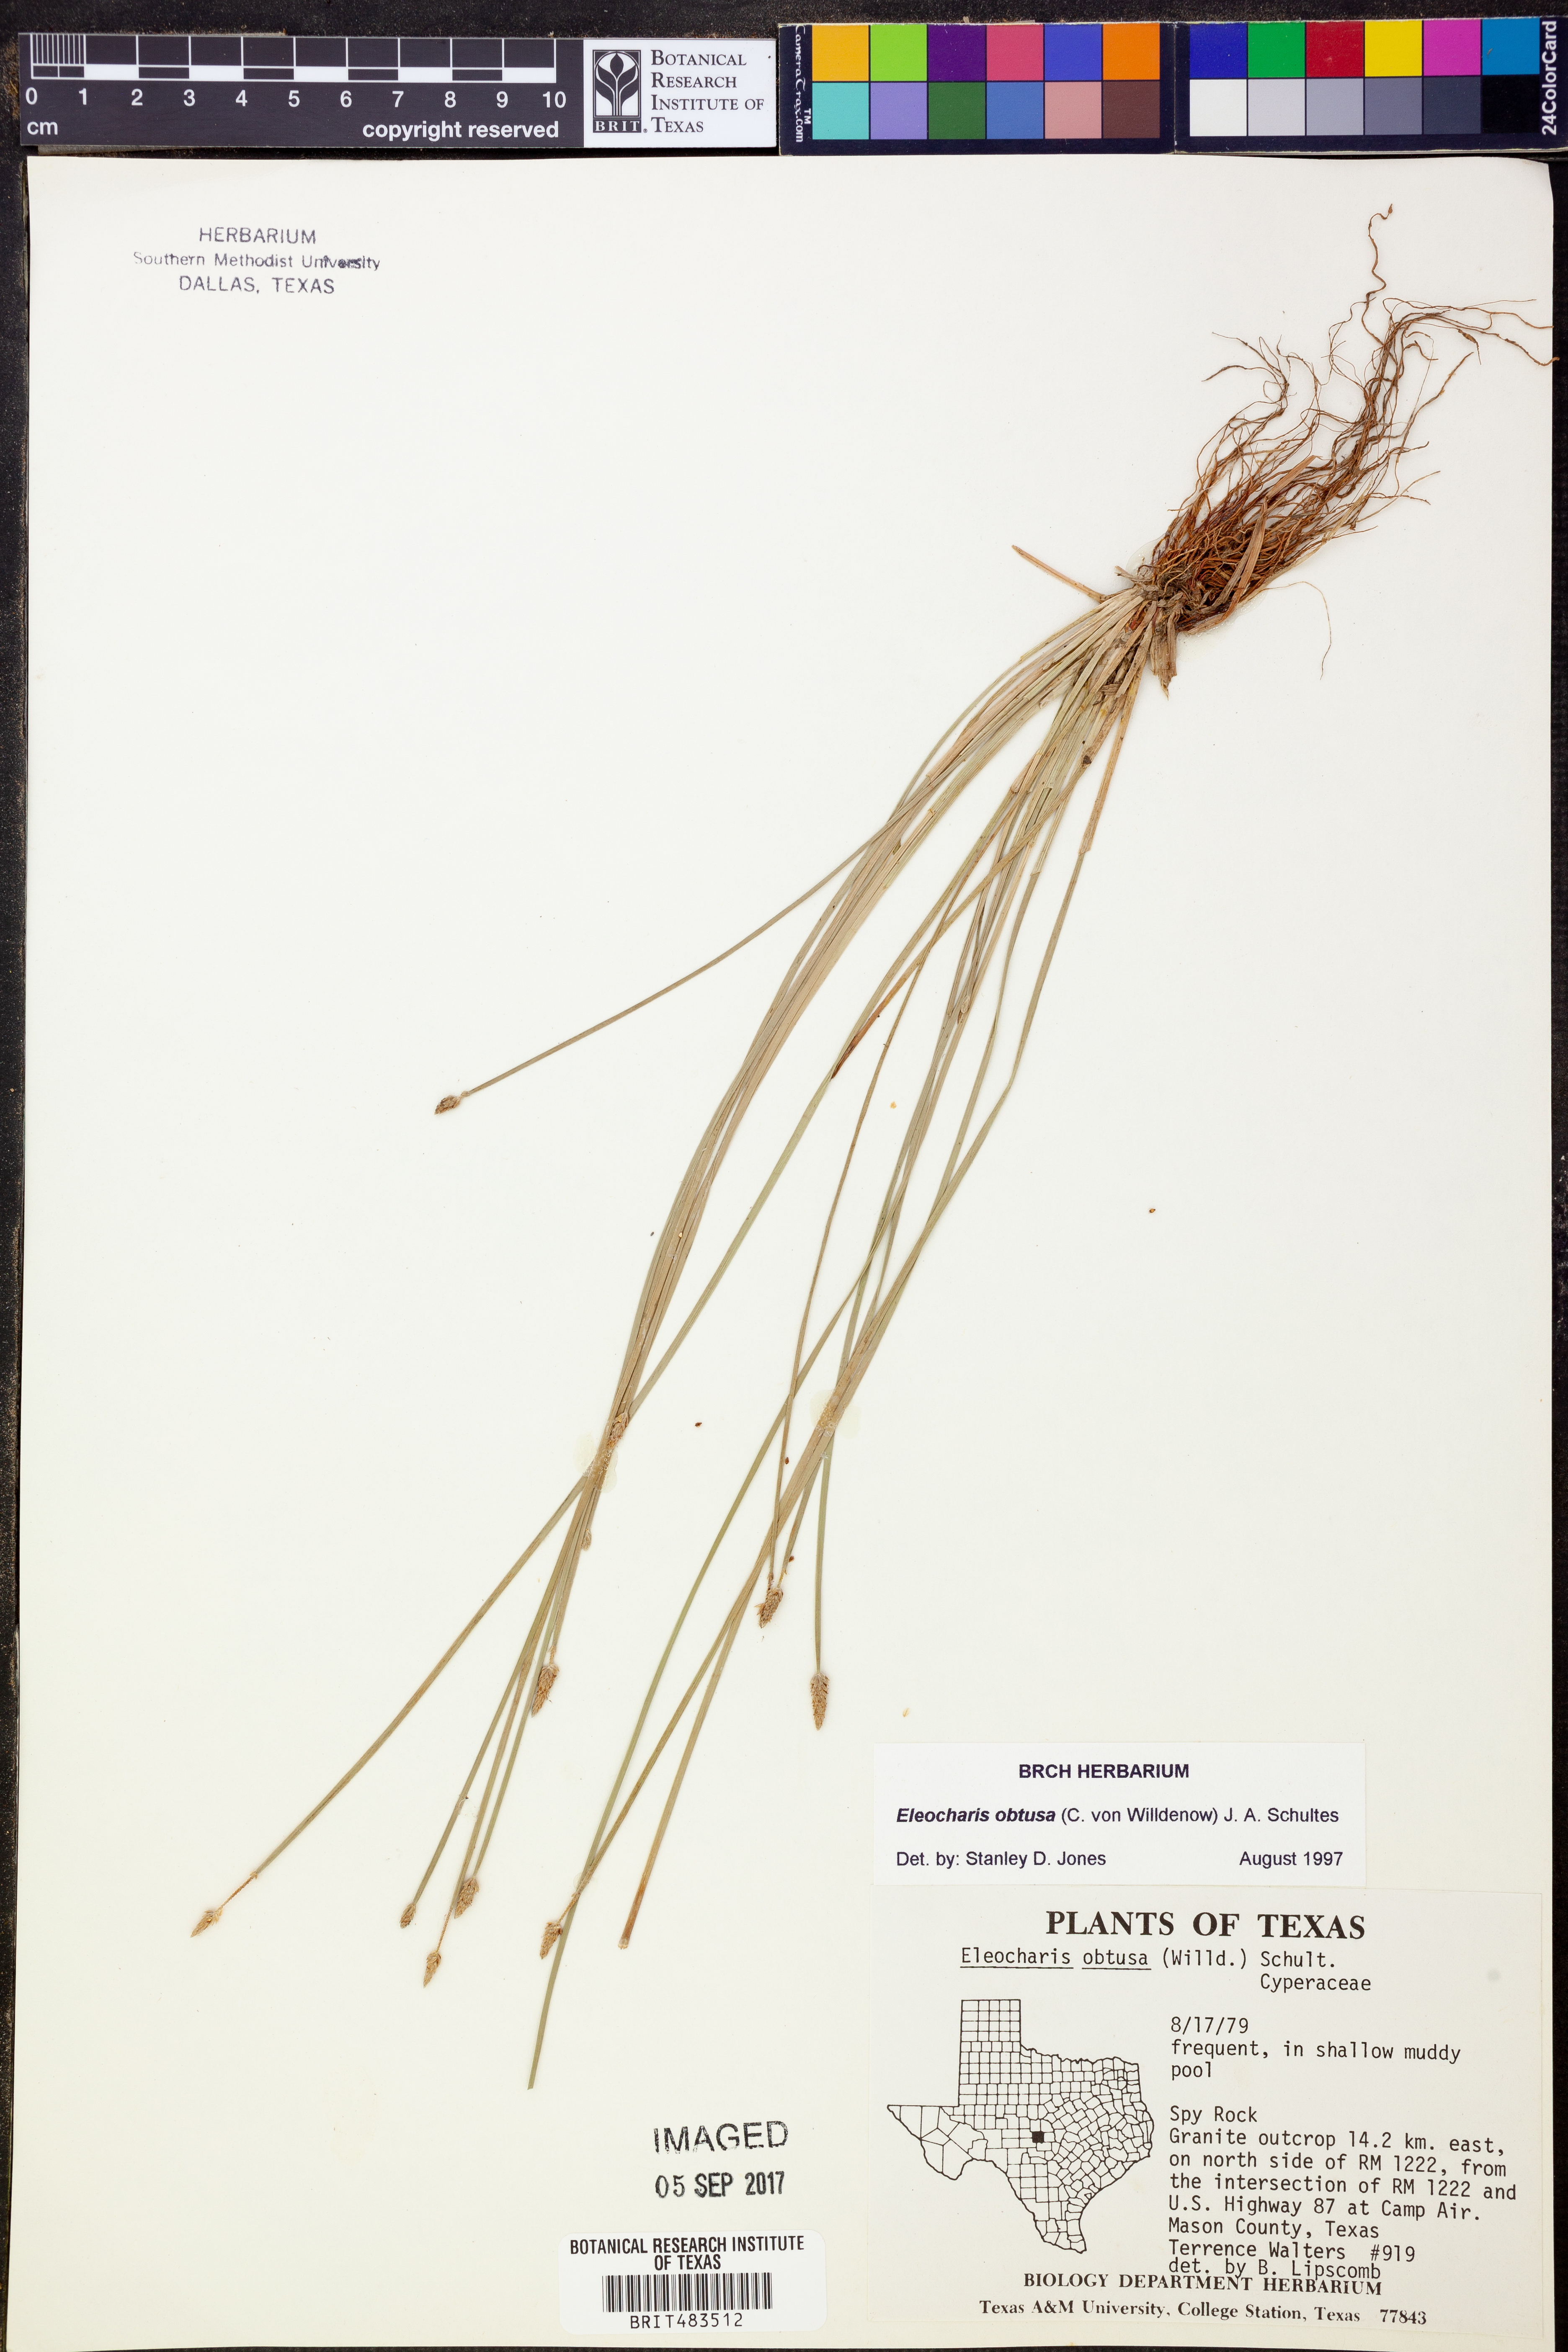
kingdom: Plantae
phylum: Tracheophyta
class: Liliopsida
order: Poales
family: Cyperaceae
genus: Eleocharis
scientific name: Eleocharis obtusa
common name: Blunt spikerush
